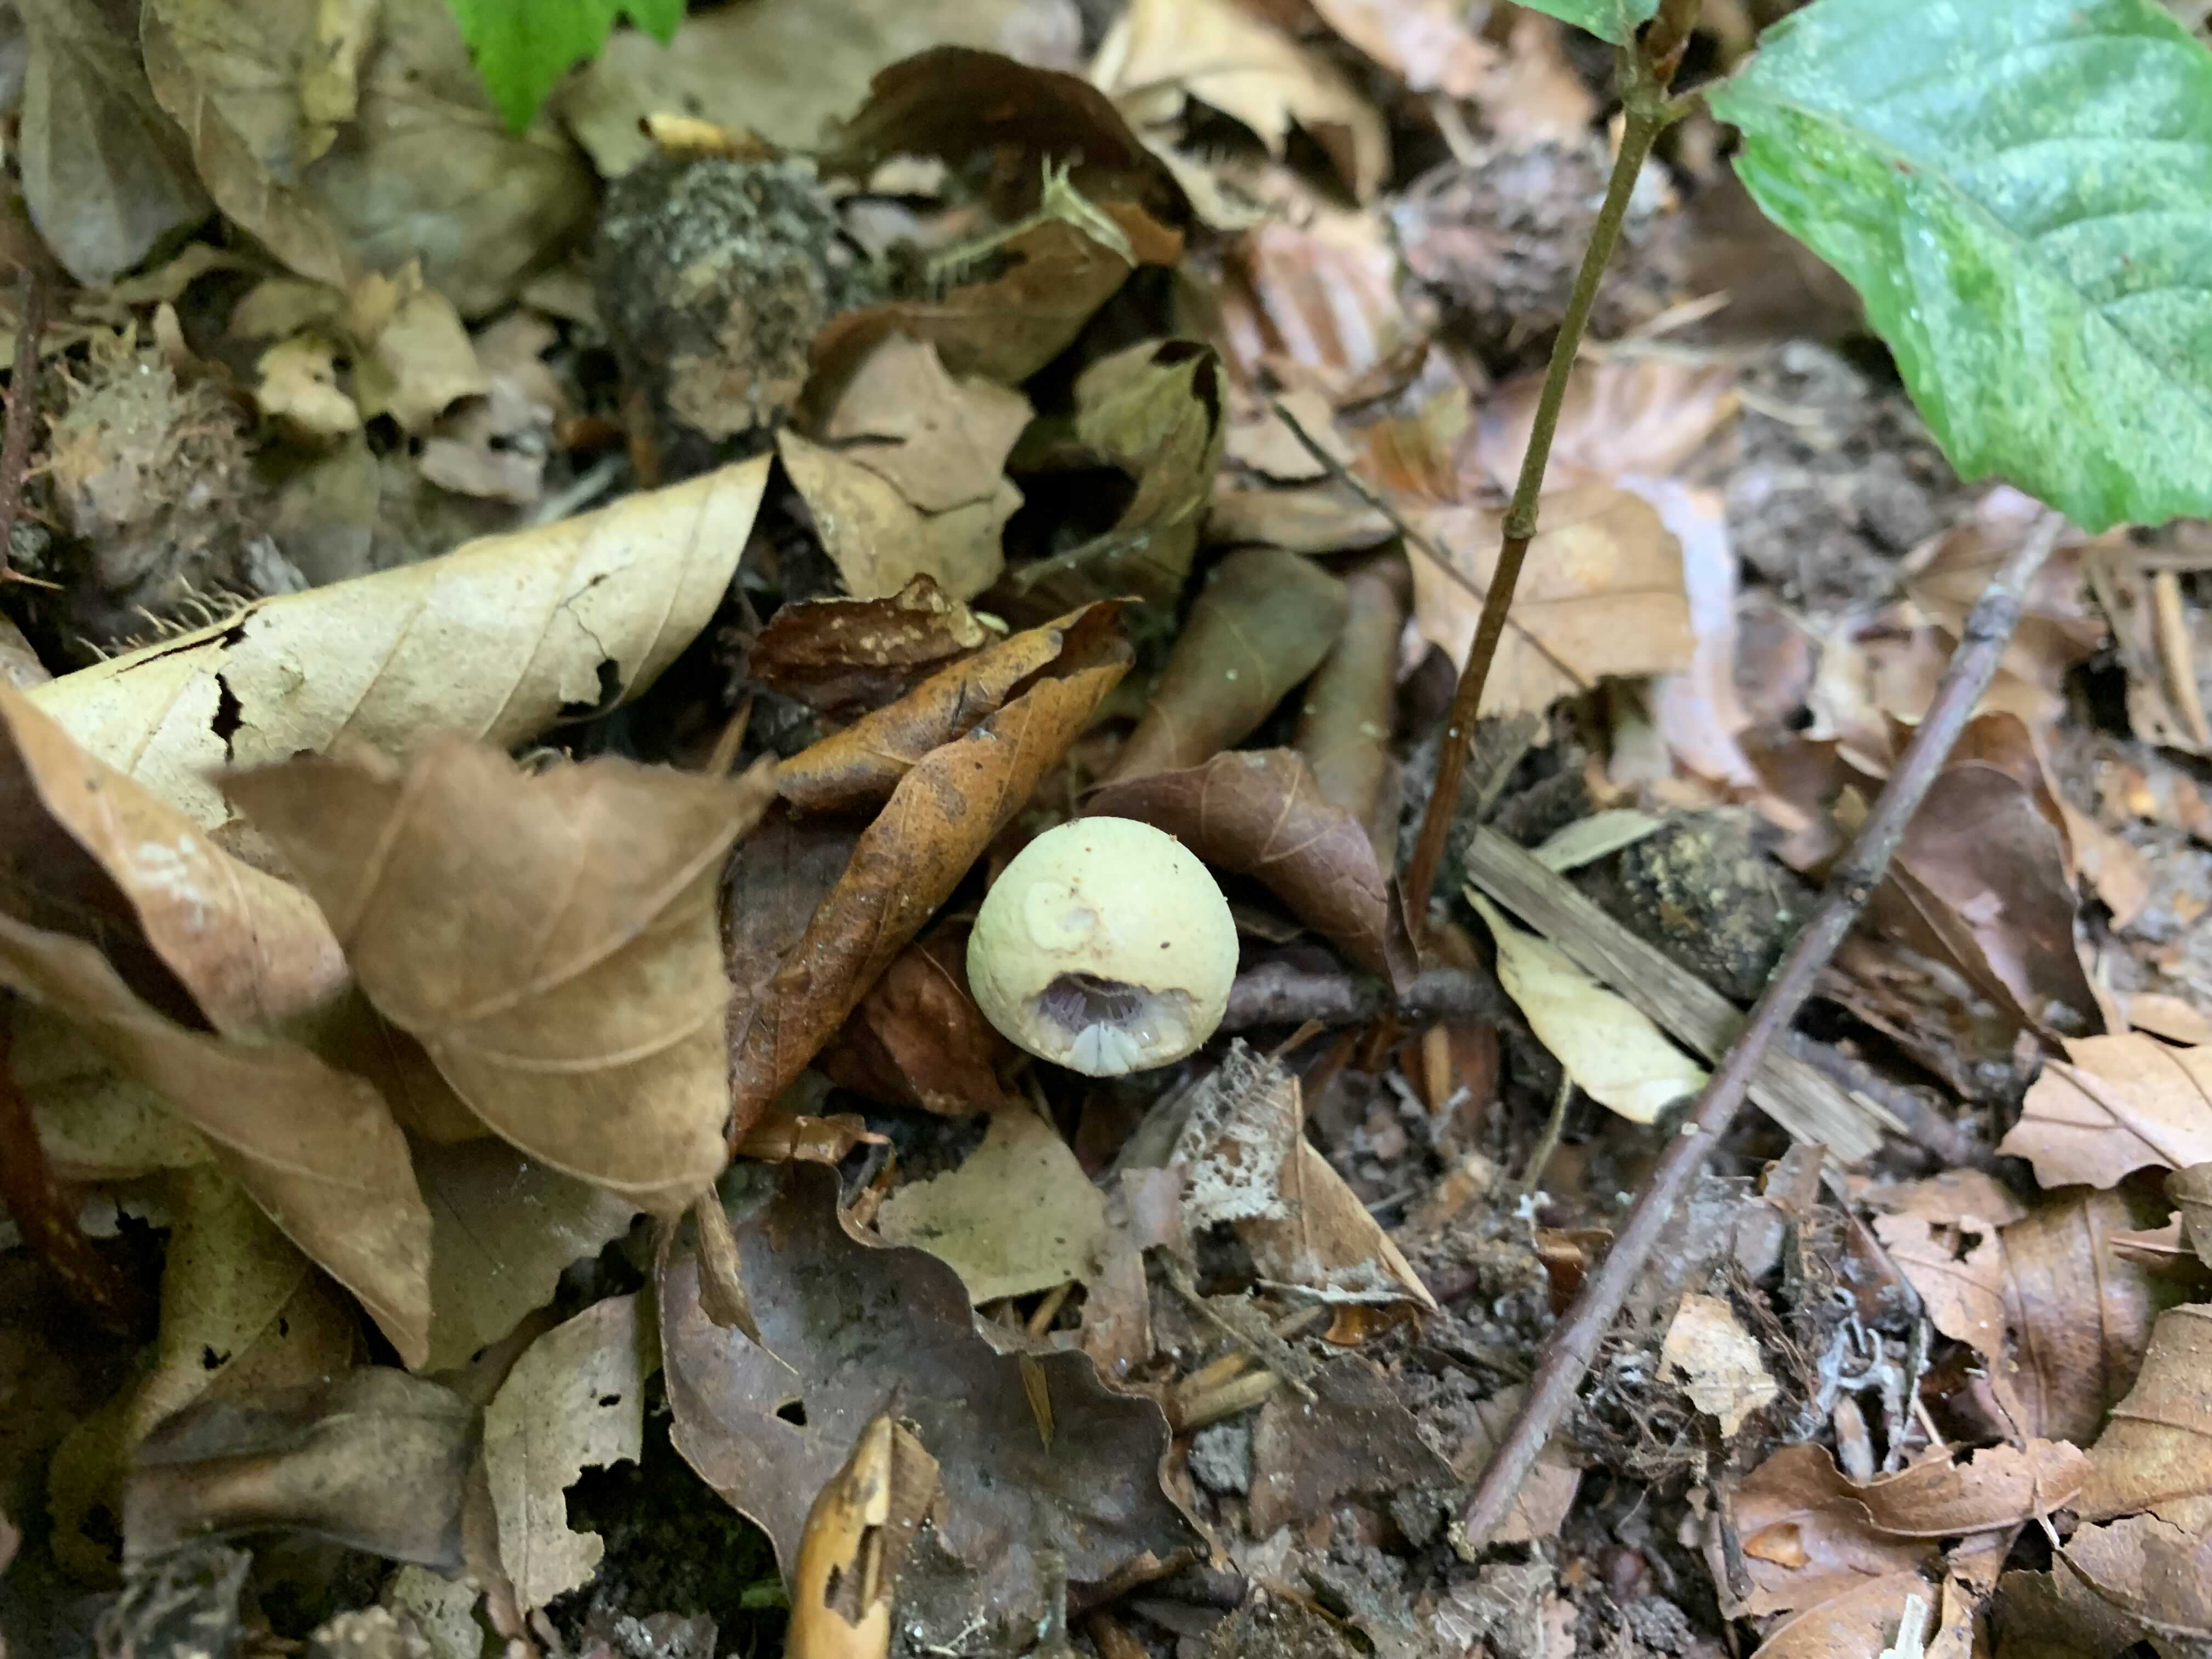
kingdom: Fungi
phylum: Basidiomycota
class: Agaricomycetes
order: Agaricales
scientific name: Agaricales
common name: champignonordenen
